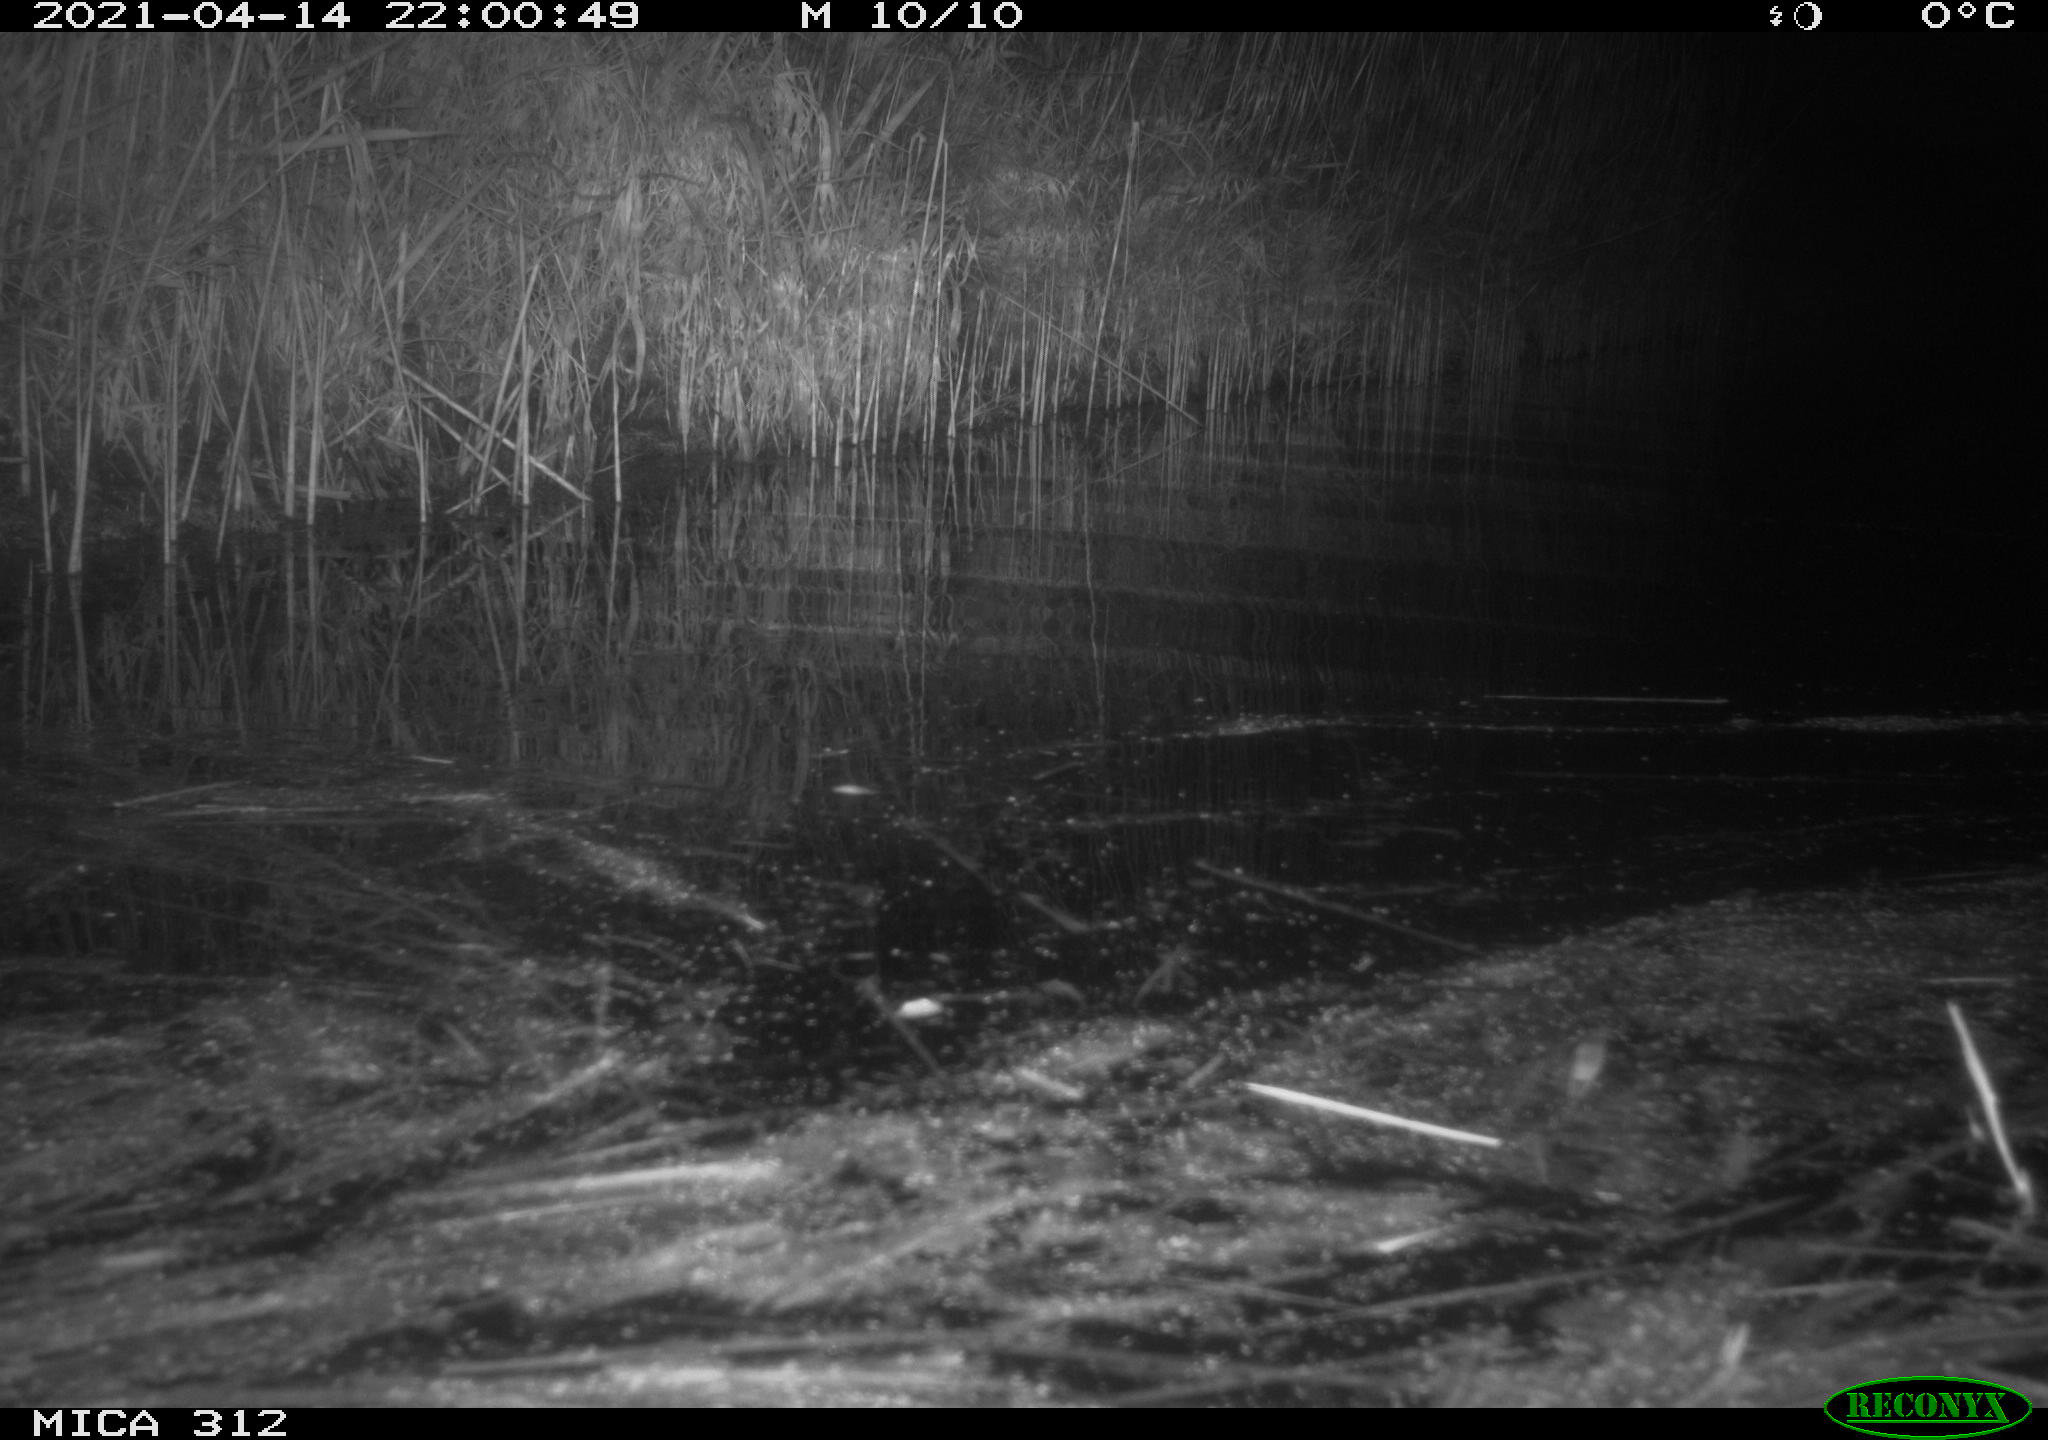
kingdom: Animalia
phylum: Chordata
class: Aves
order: Gruiformes
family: Rallidae
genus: Fulica
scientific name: Fulica atra
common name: Eurasian coot
